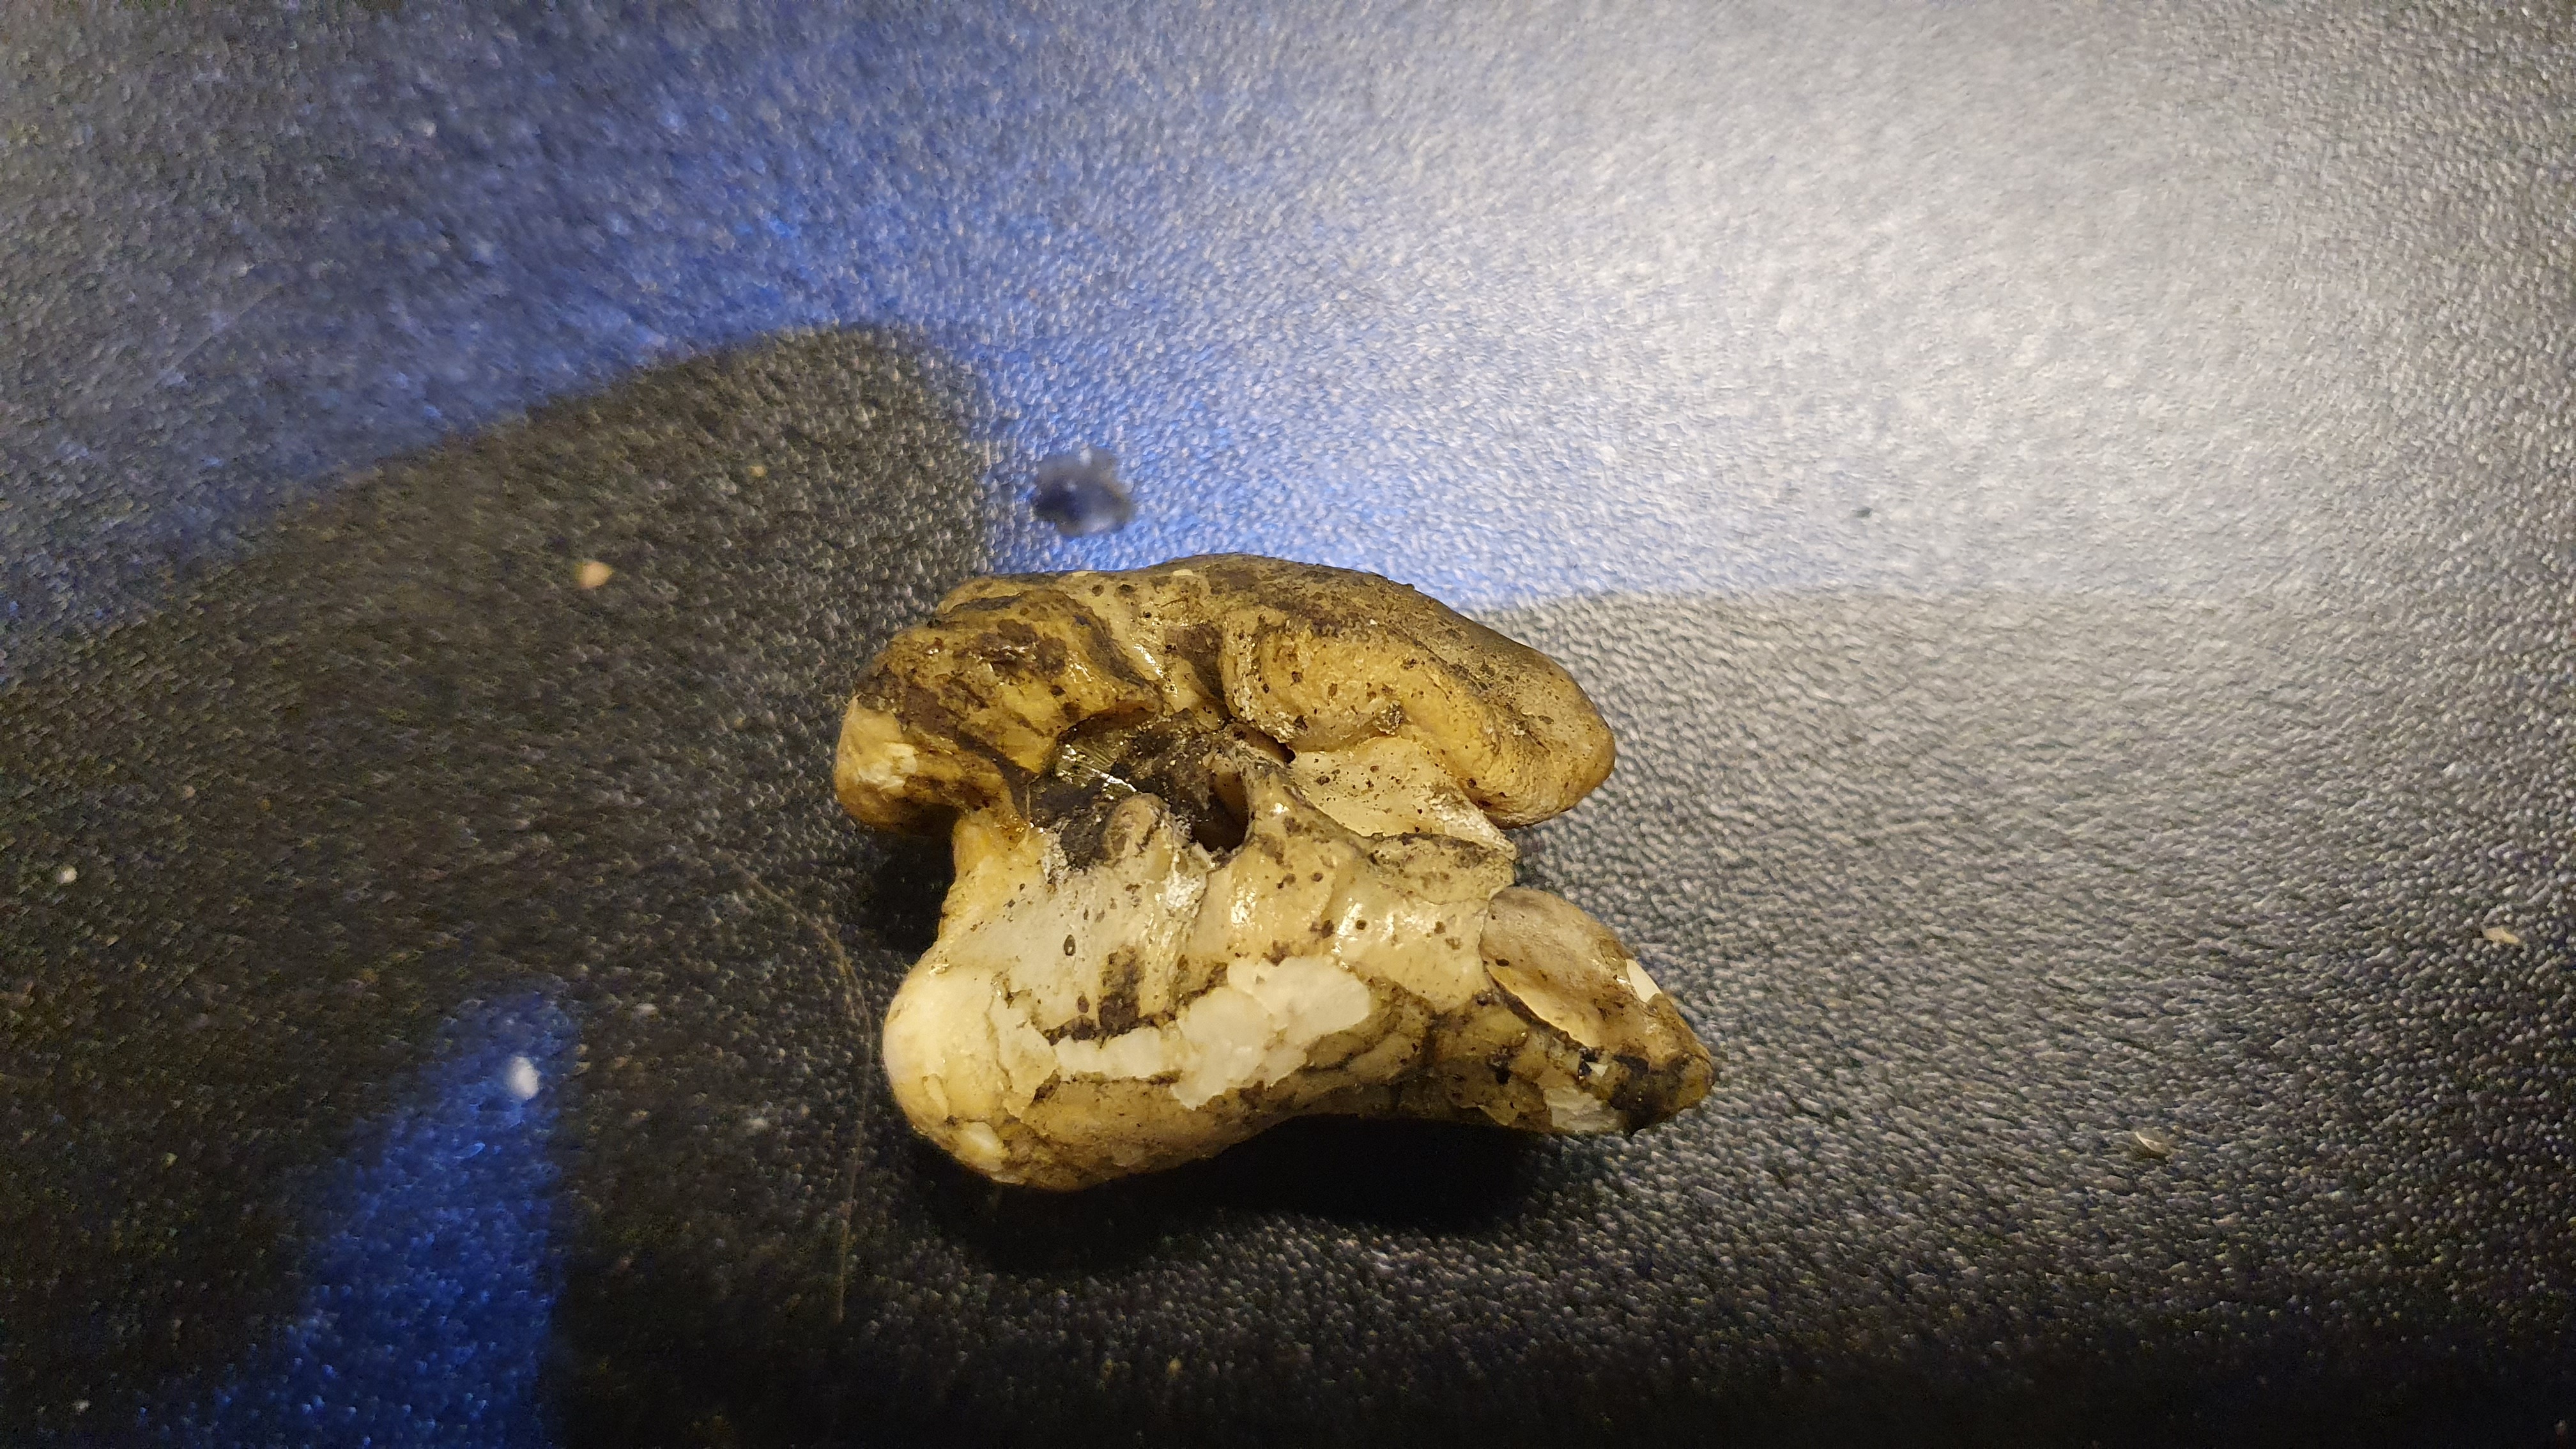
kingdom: Animalia
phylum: Chordata
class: Mammalia
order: Cetacea
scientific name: Cetacea
